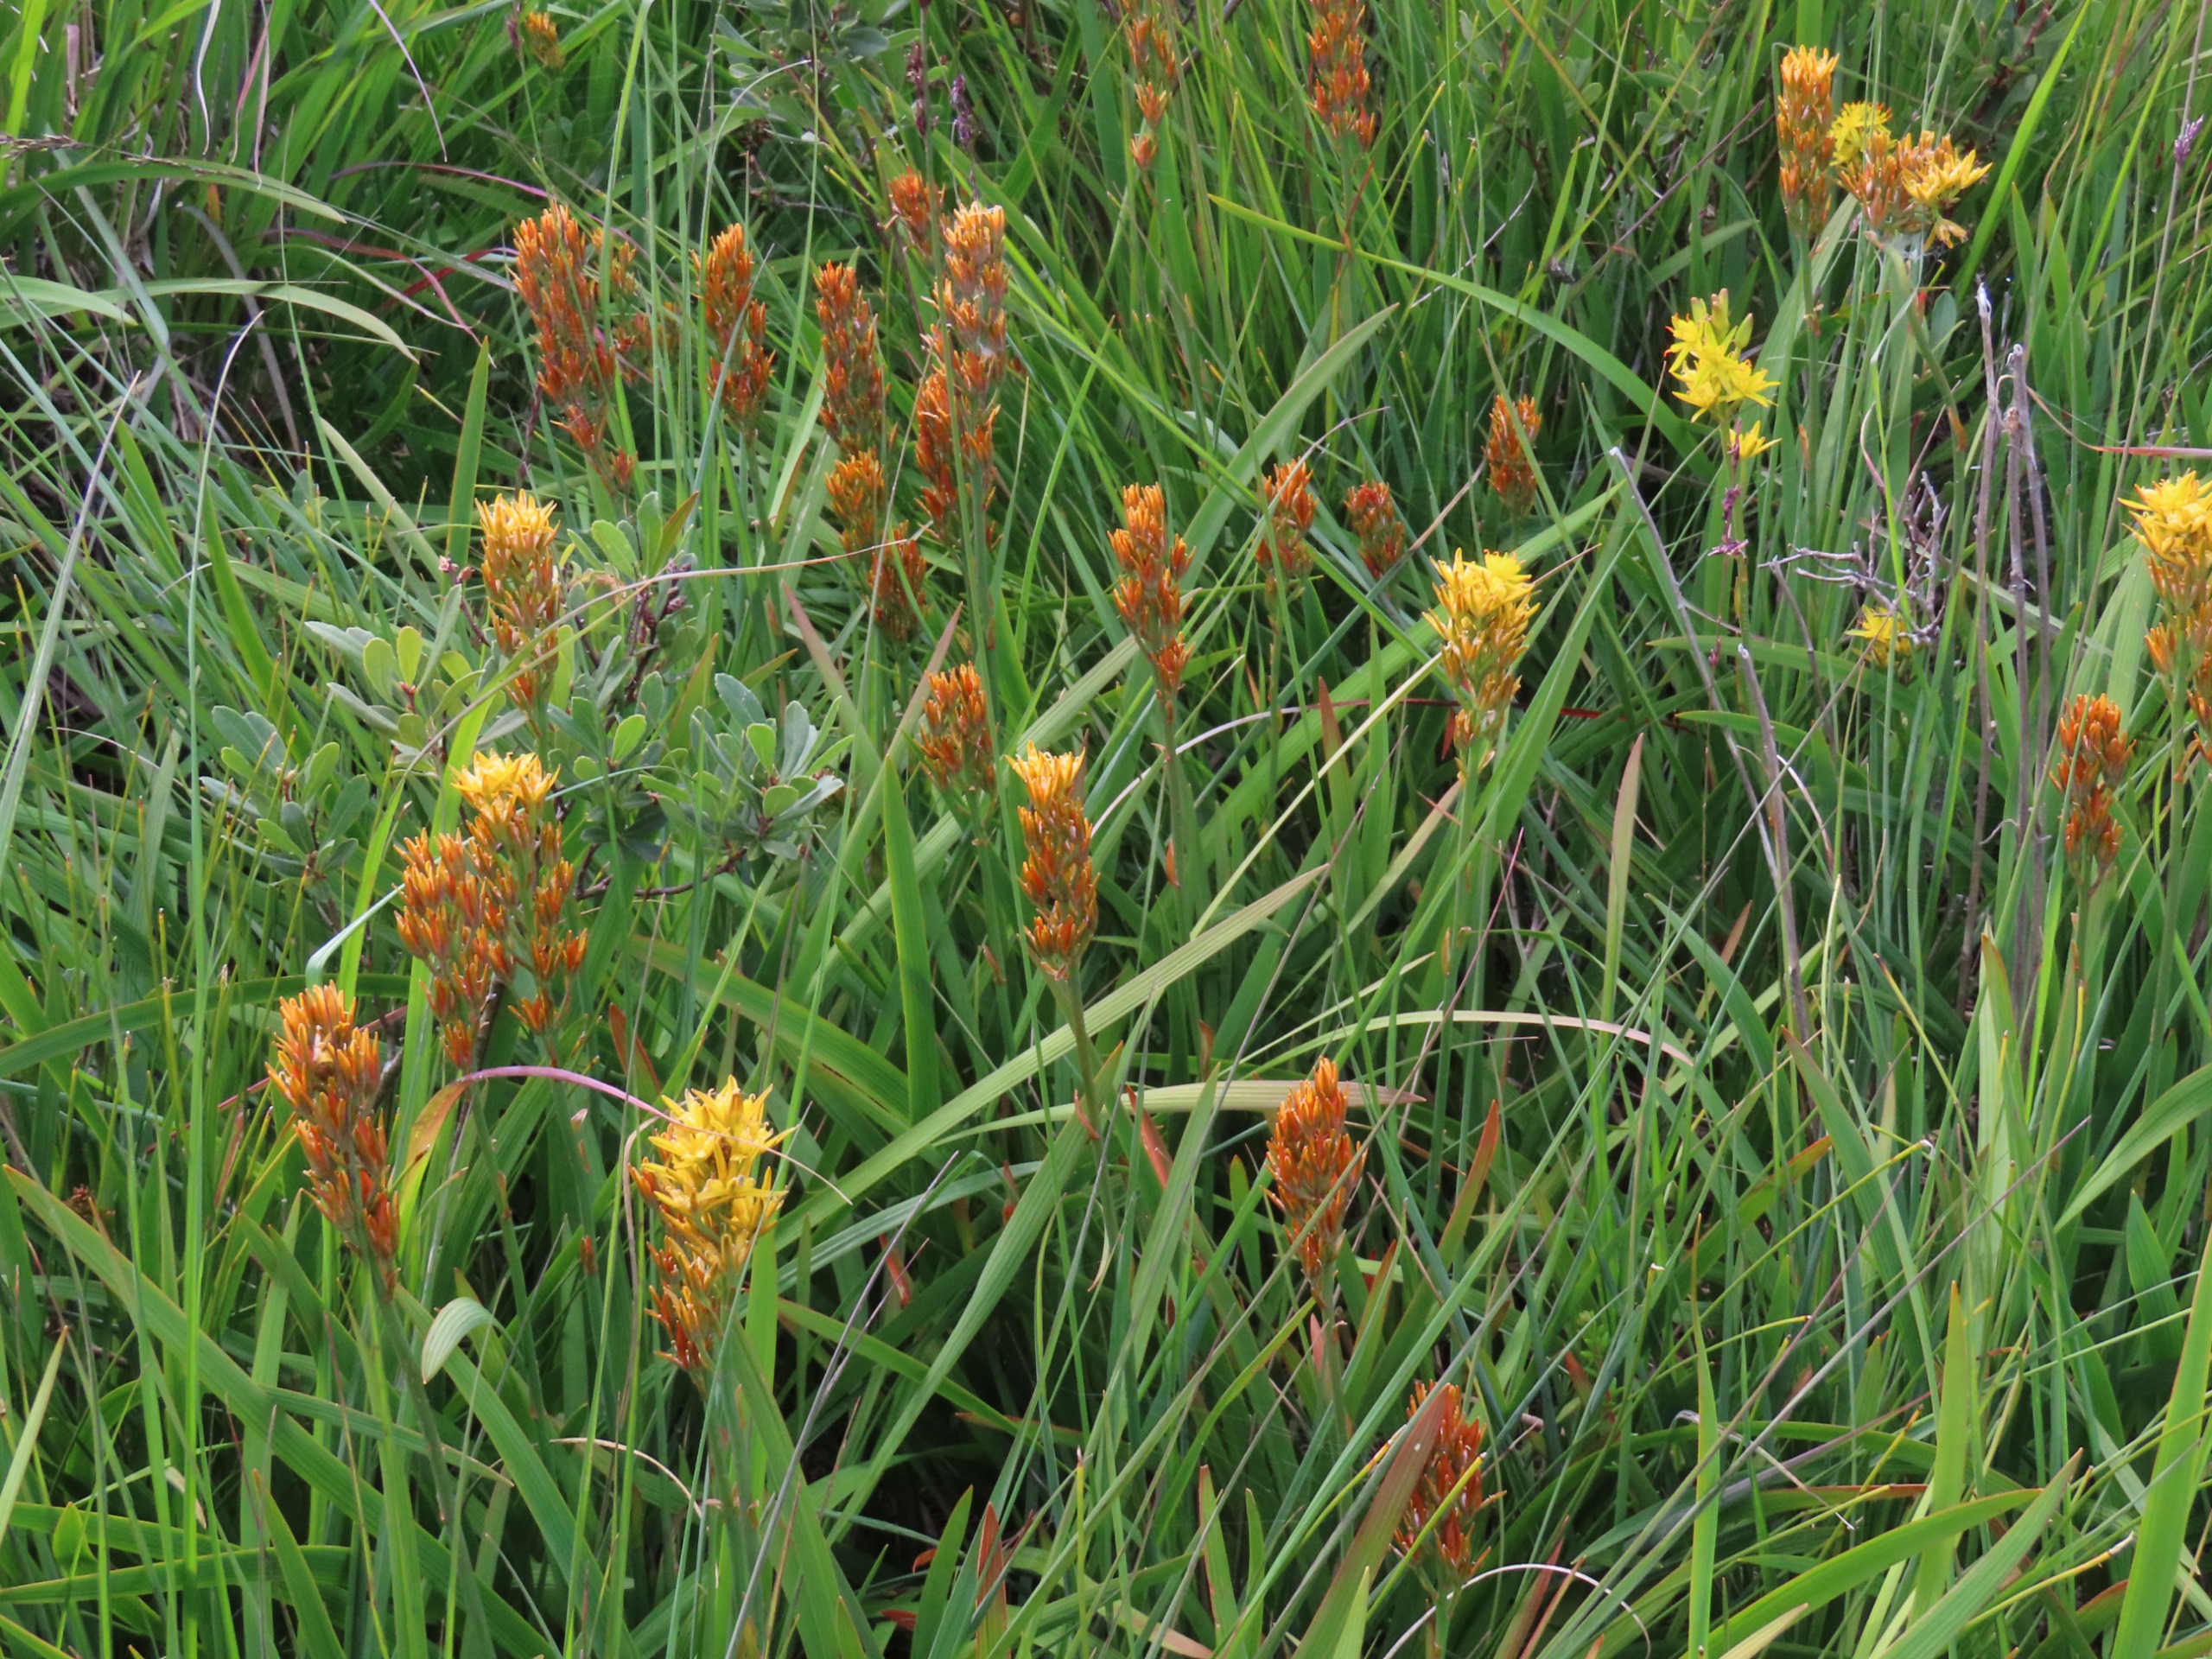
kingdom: Plantae
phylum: Tracheophyta
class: Liliopsida
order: Dioscoreales
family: Nartheciaceae
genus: Narthecium
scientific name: Narthecium ossifragum
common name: Benbræk
